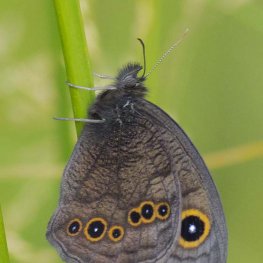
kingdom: Animalia
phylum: Arthropoda
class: Insecta
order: Lepidoptera
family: Nymphalidae
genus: Cercyonis
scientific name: Cercyonis pegala
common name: Common Wood-Nymph
